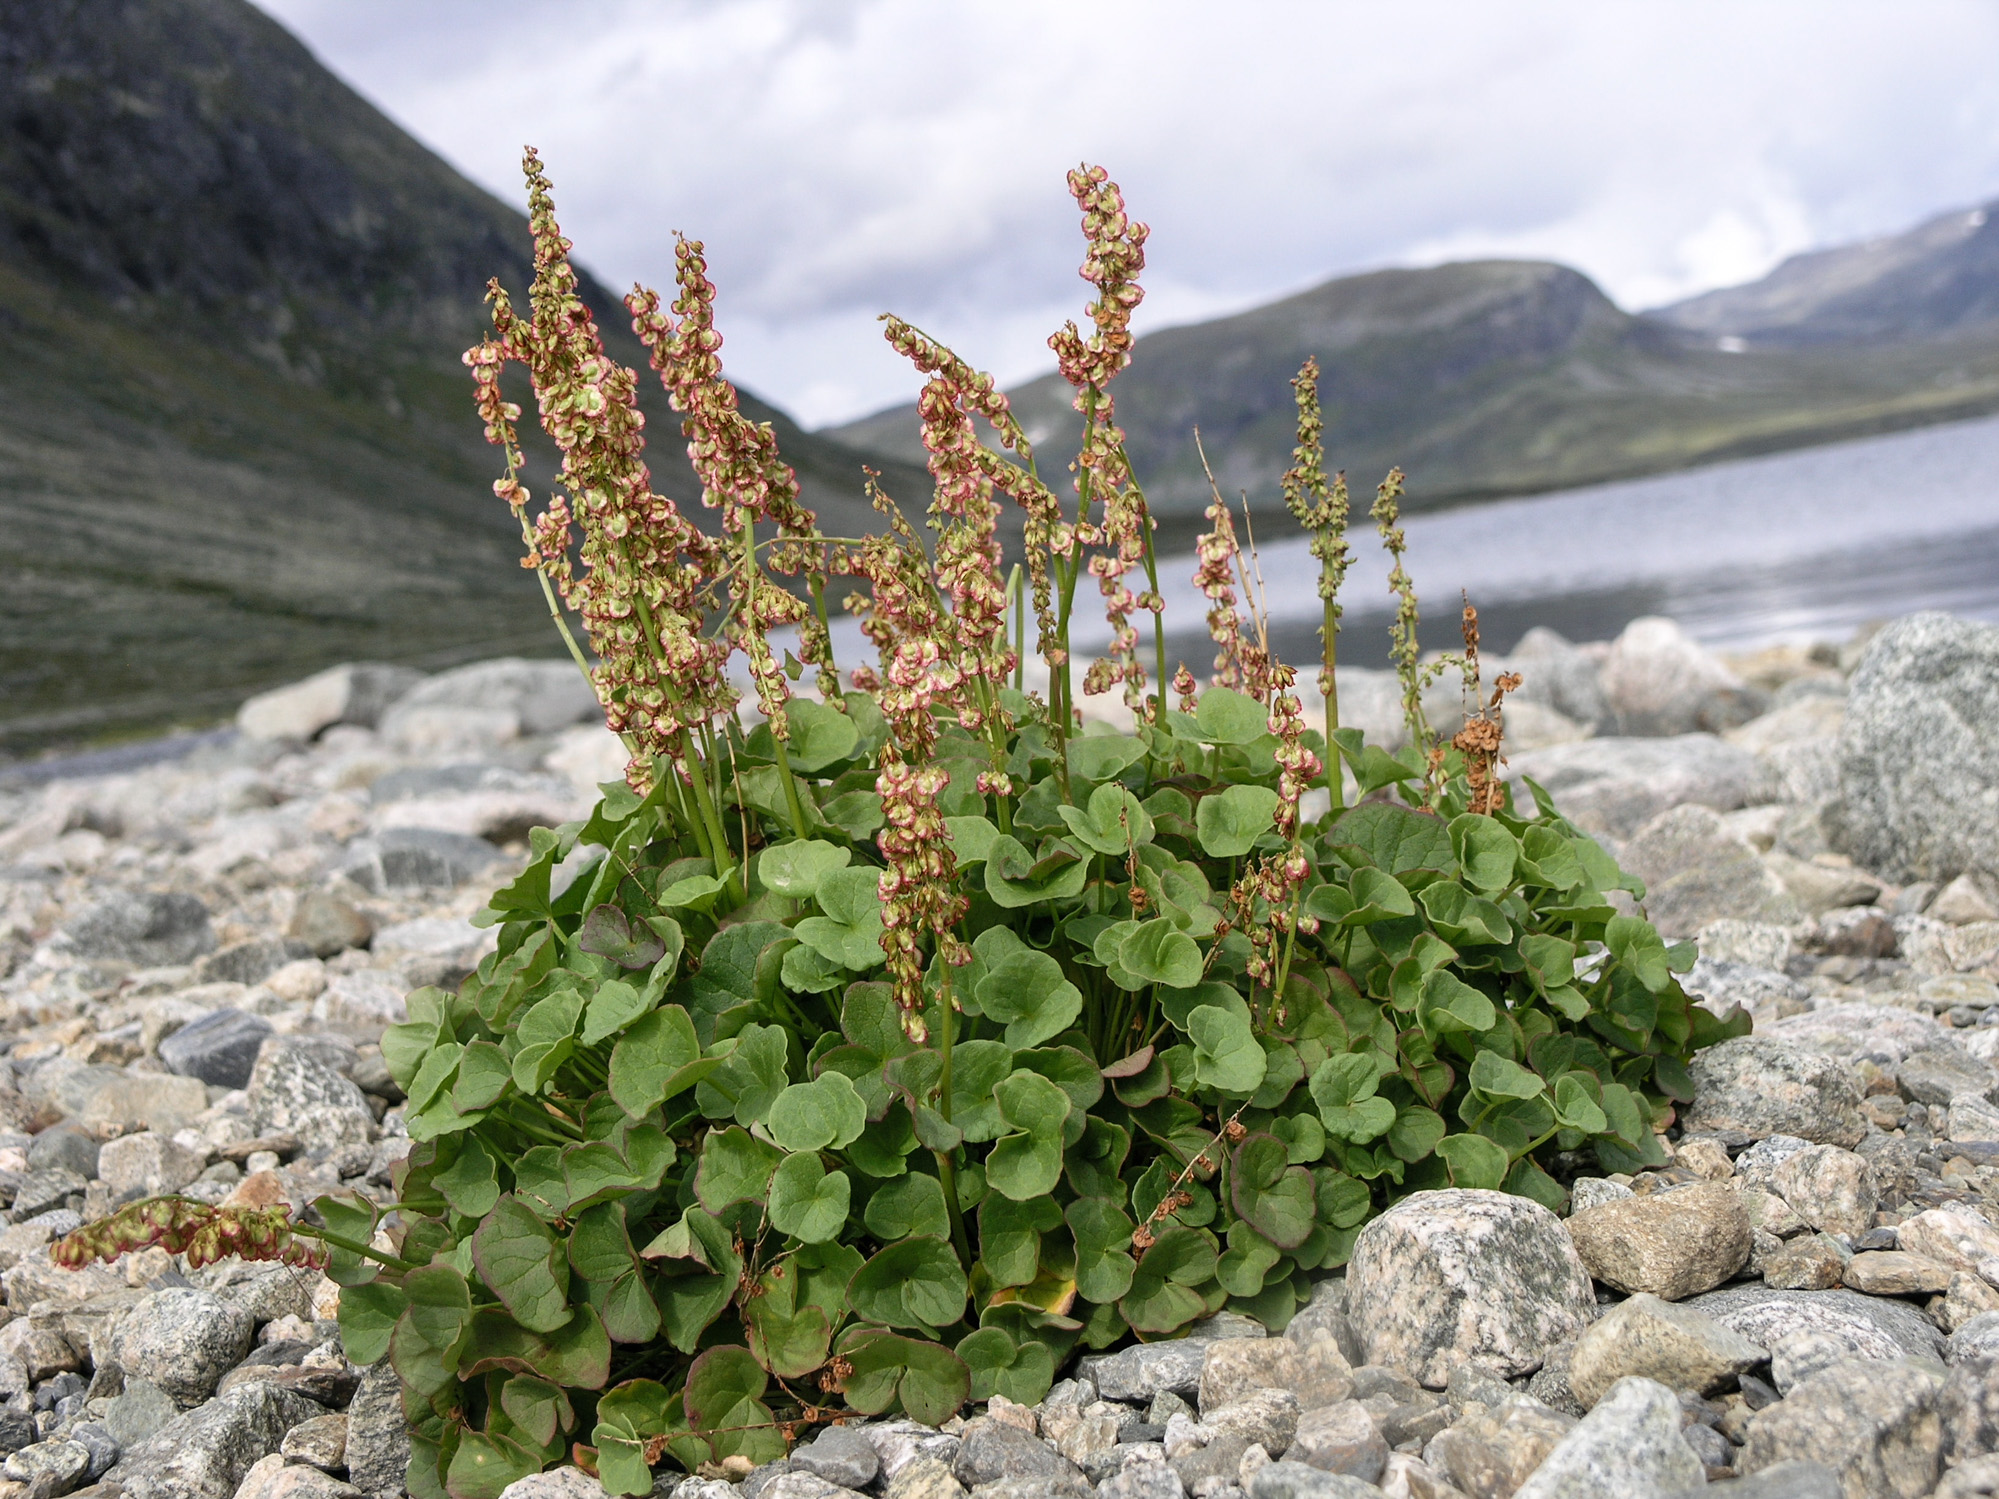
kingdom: Plantae
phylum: Tracheophyta
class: Magnoliopsida
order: Caryophyllales
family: Polygonaceae
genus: Oxyria
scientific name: Oxyria digyna
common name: Alpine mountain-sorrel
